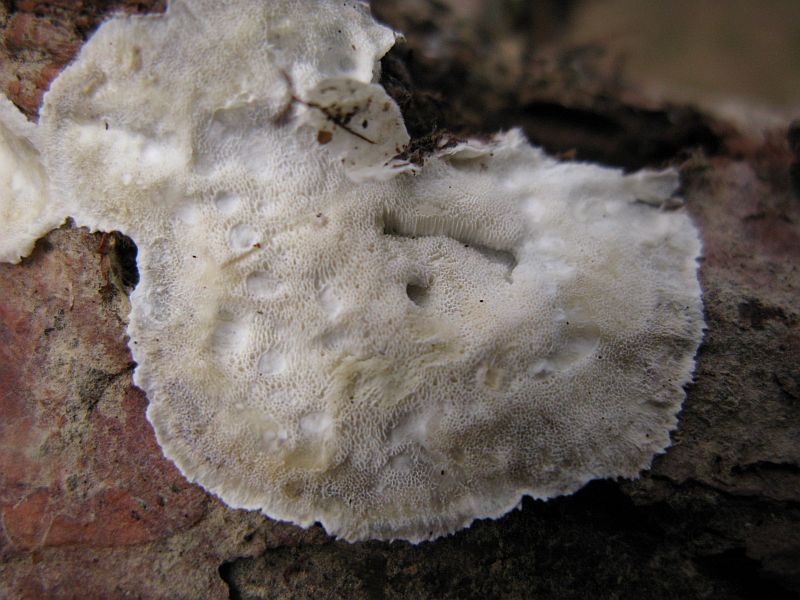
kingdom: Fungi
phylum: Basidiomycota
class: Agaricomycetes
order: Polyporales
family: Incrustoporiaceae
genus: Skeletocutis
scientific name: Skeletocutis amorpha
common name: orange krystalporesvamp
